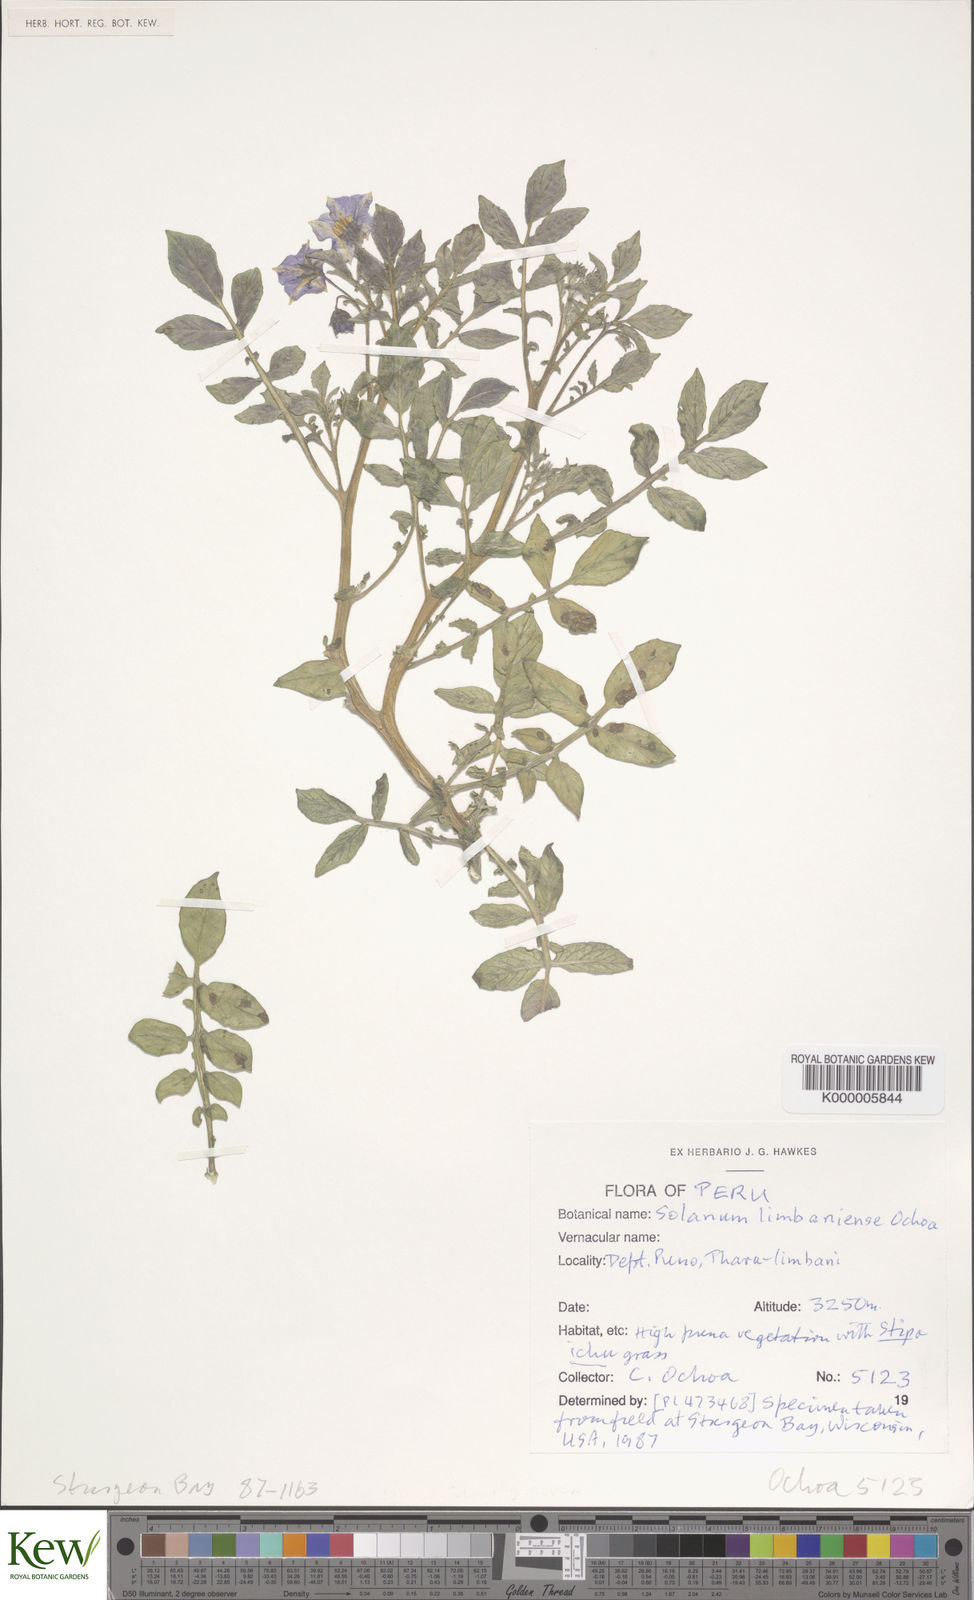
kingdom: Plantae
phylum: Tracheophyta
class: Magnoliopsida
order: Solanales
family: Solanaceae
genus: Solanum
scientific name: Solanum limbaniense
